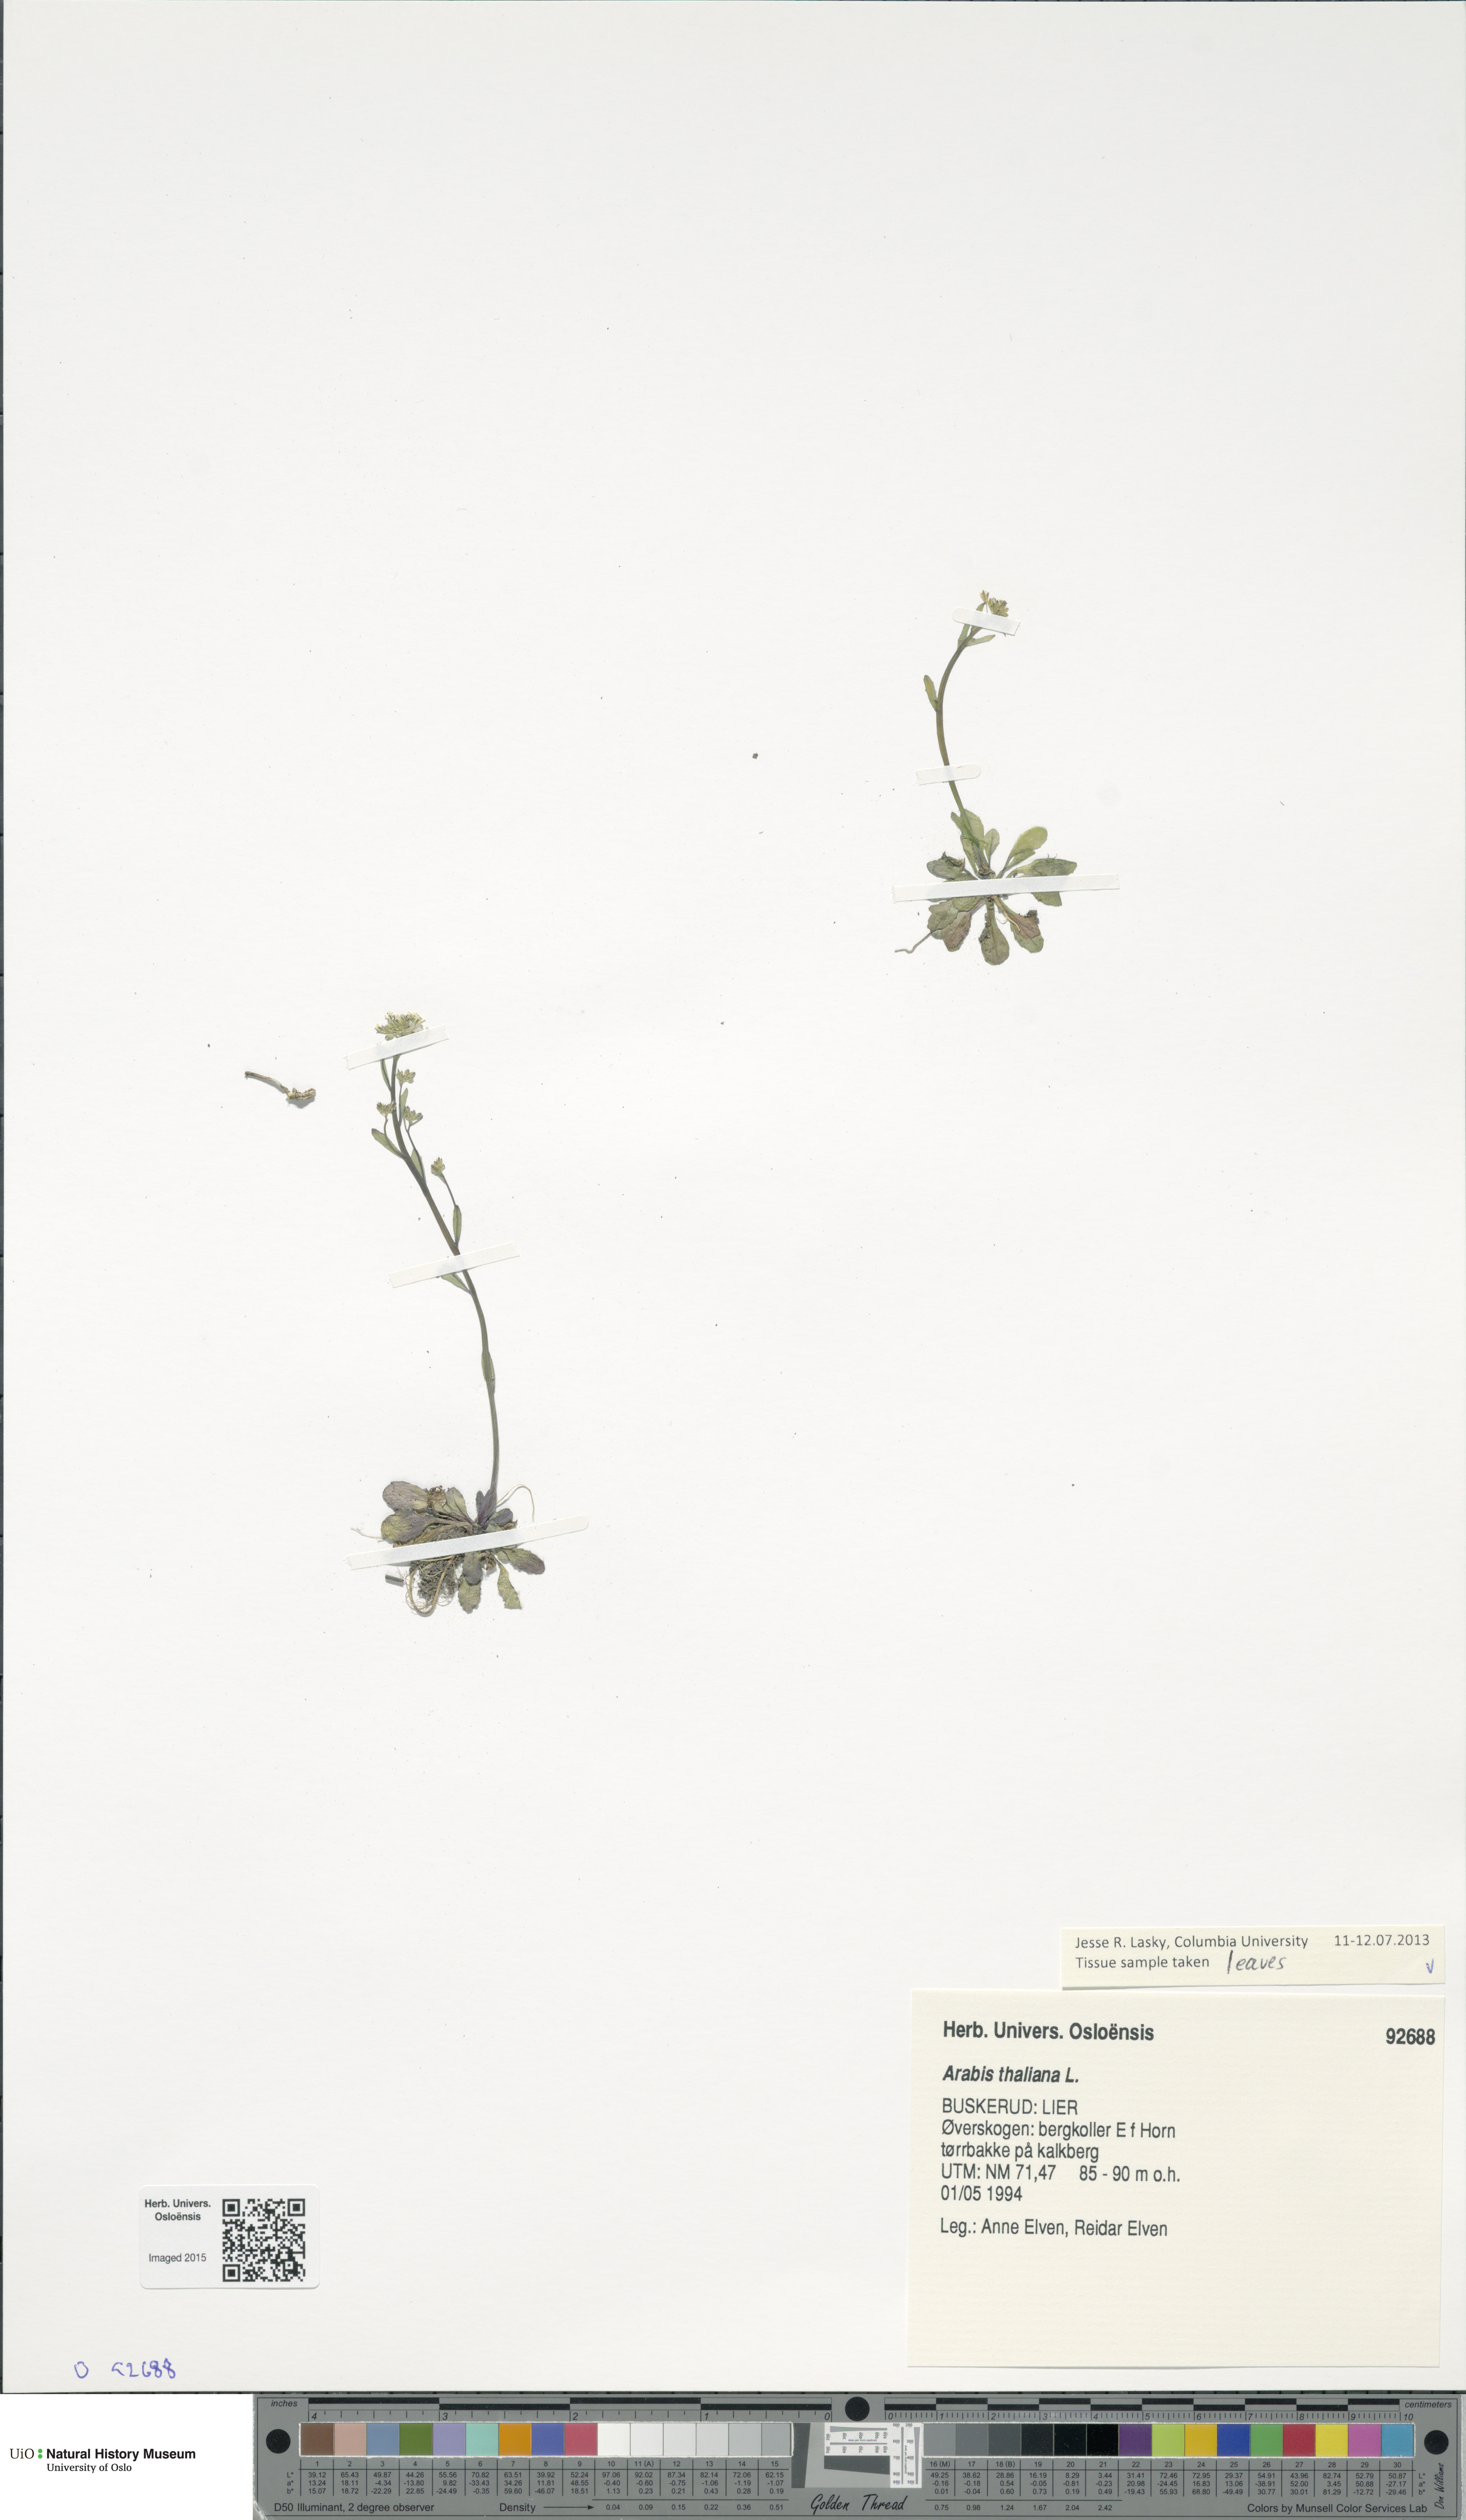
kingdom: Plantae
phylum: Tracheophyta
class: Magnoliopsida
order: Brassicales
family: Brassicaceae
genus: Arabidopsis
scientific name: Arabidopsis thaliana
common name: Thale cress
